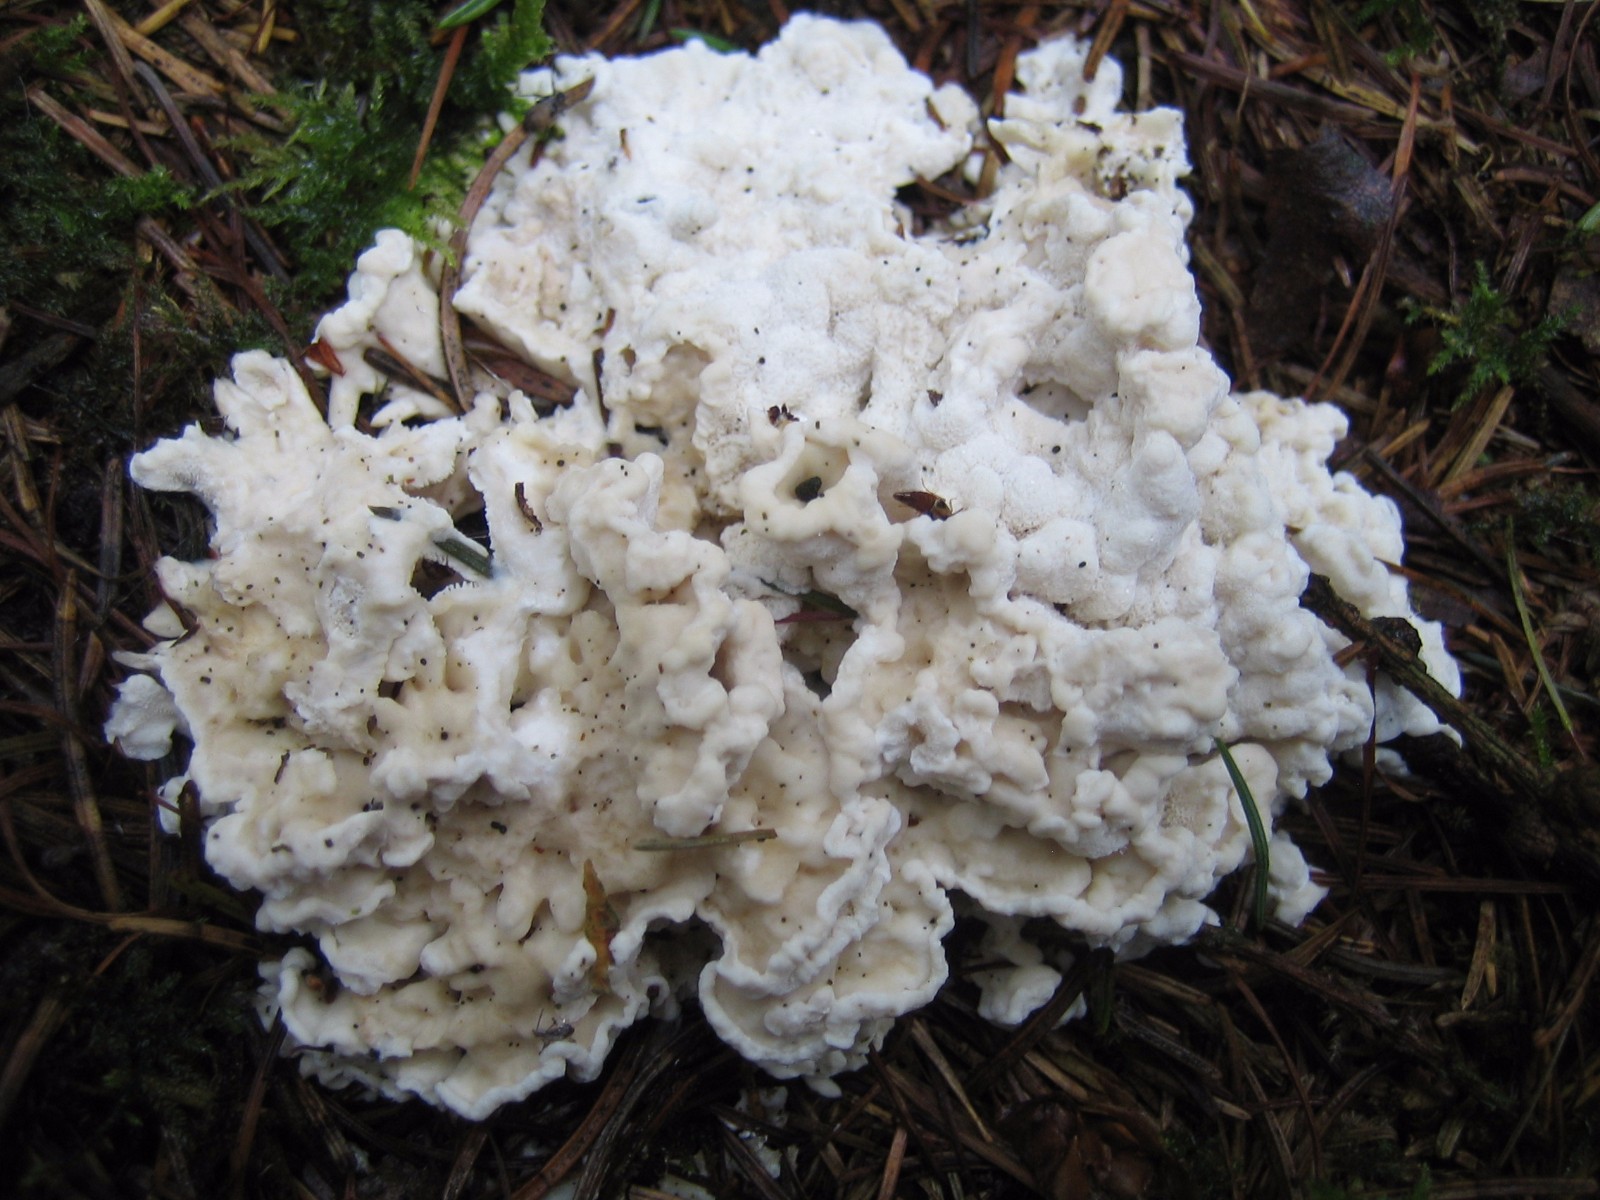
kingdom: Fungi
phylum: Basidiomycota
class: Agaricomycetes
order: Polyporales
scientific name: Polyporales
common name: poresvampordenen
